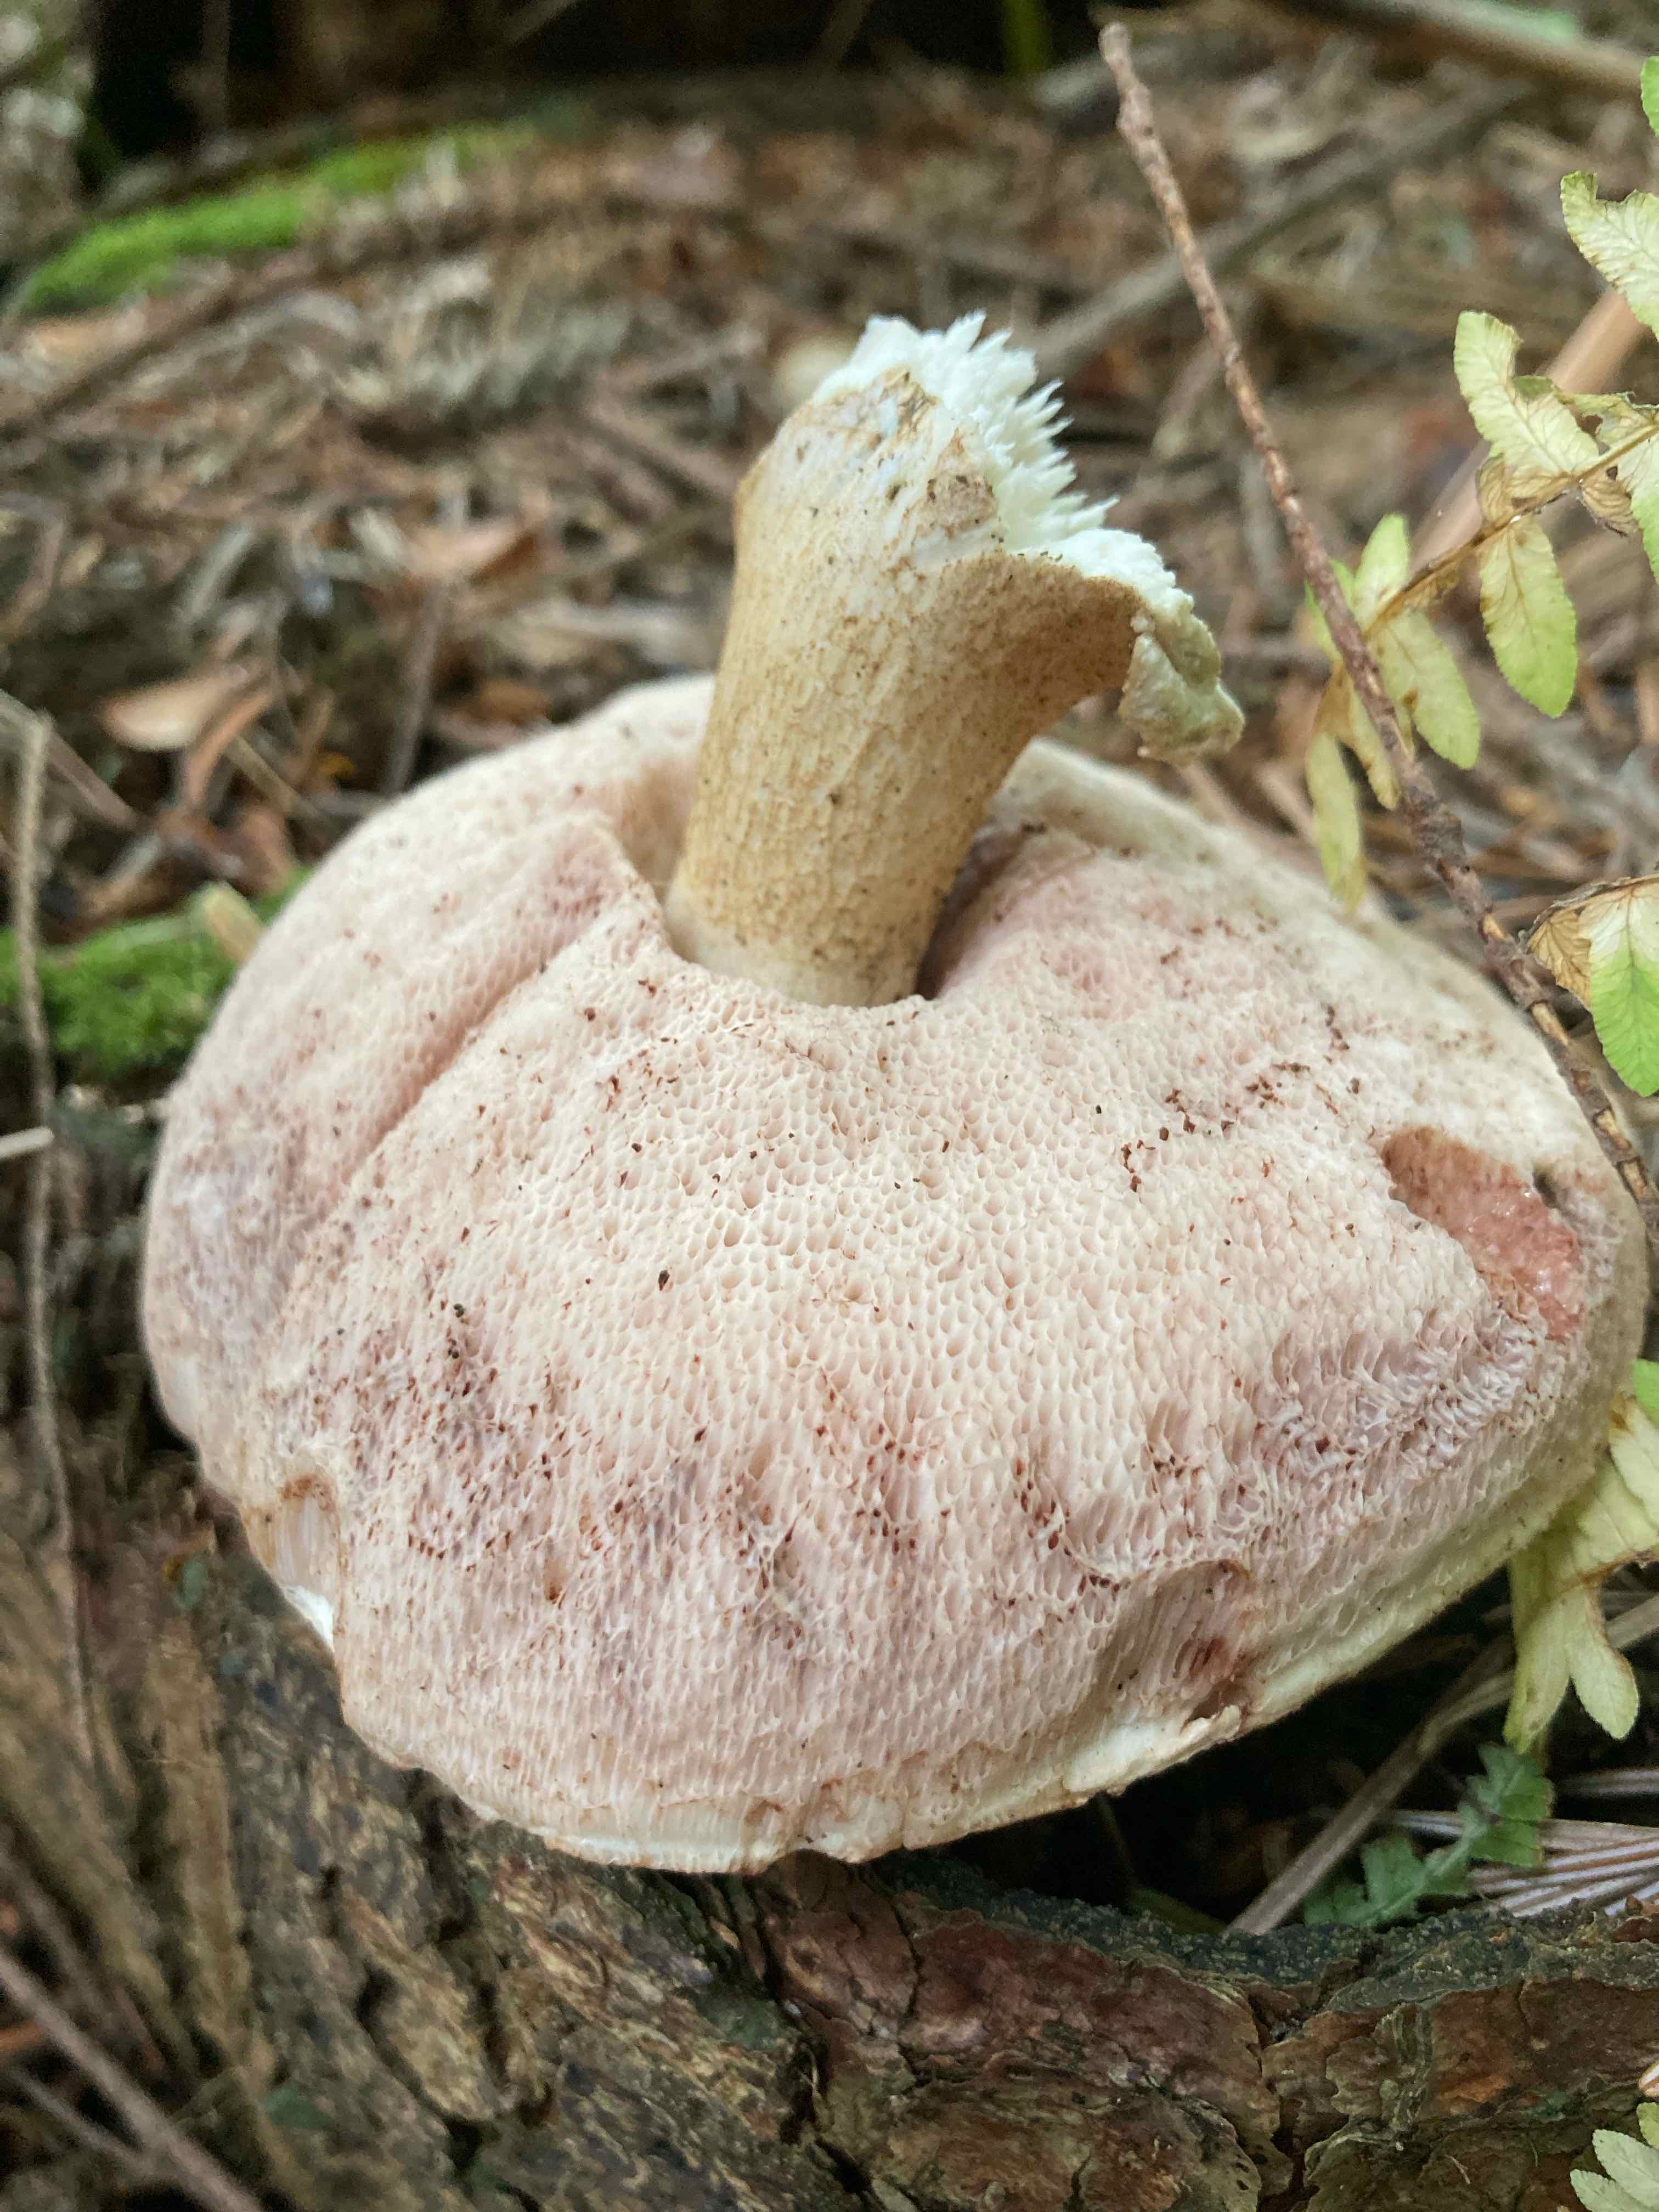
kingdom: Fungi
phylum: Basidiomycota
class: Agaricomycetes
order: Boletales
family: Boletaceae
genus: Tylopilus
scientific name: Tylopilus felleus
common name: galderørhat
